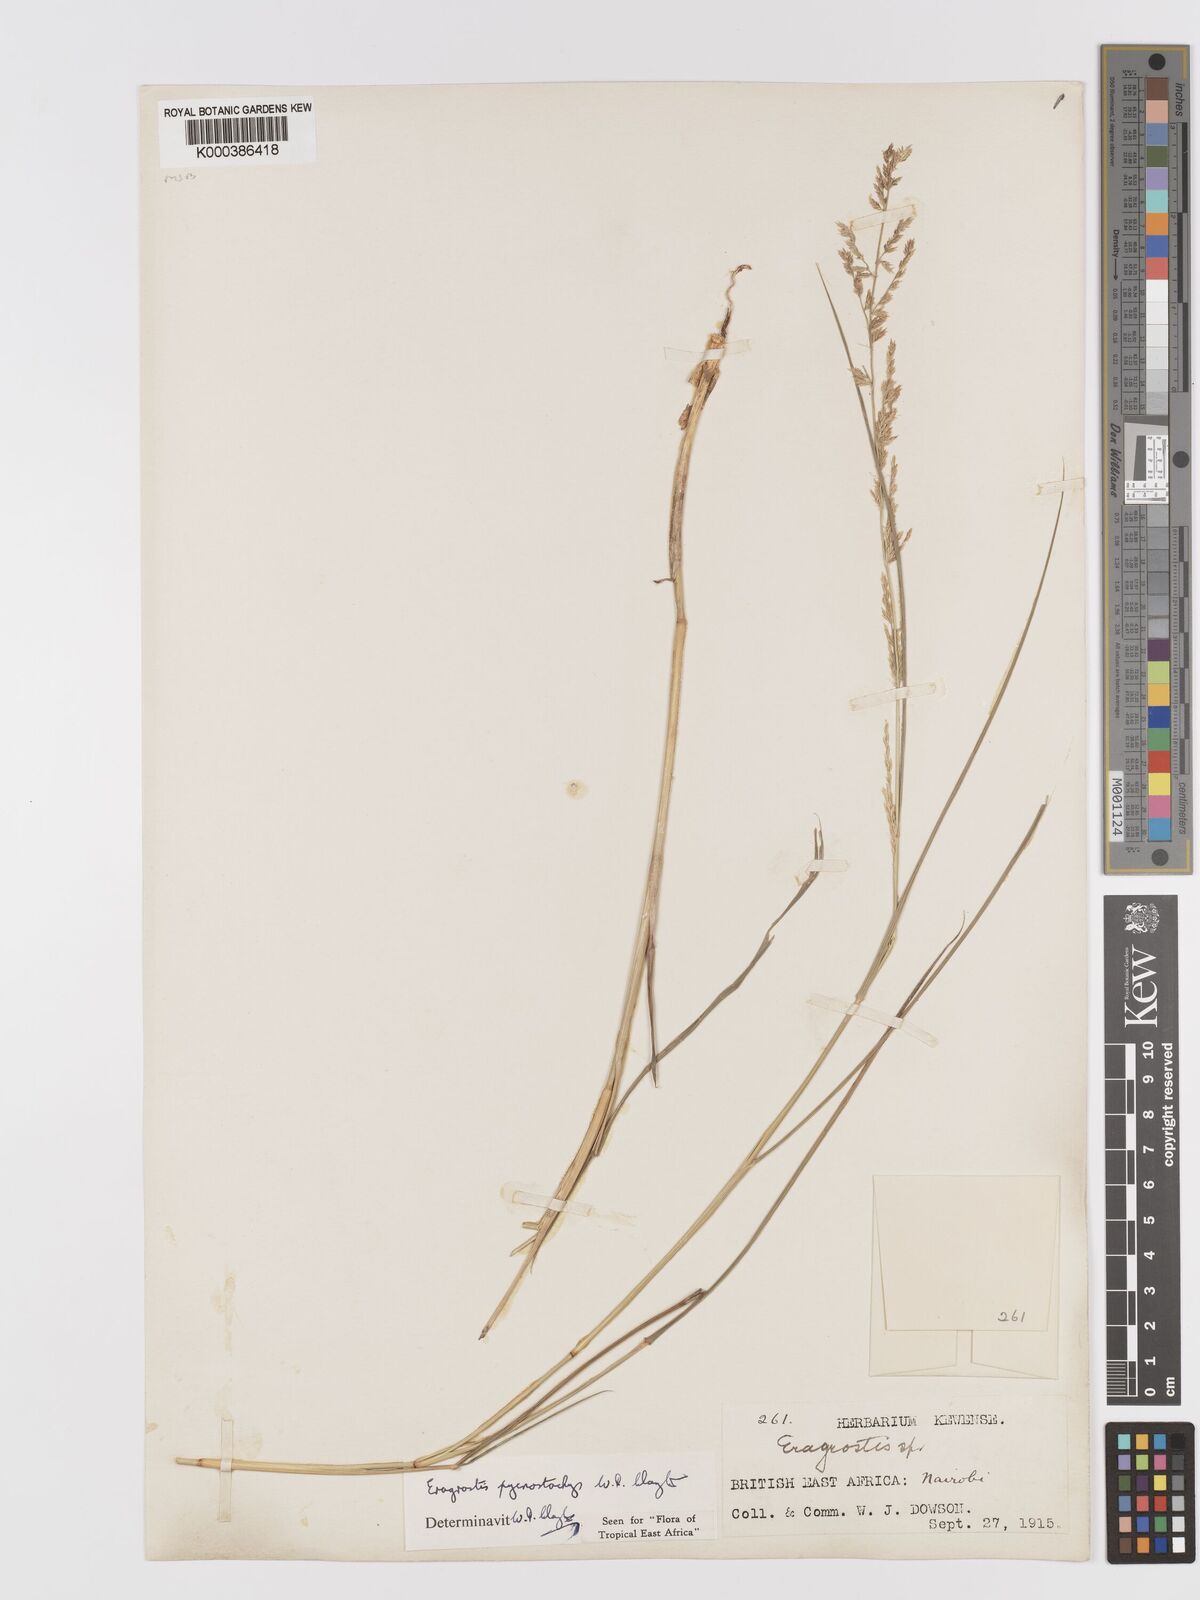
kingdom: Plantae
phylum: Tracheophyta
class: Liliopsida
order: Poales
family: Poaceae
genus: Eragrostis
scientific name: Eragrostis pycnostachys
